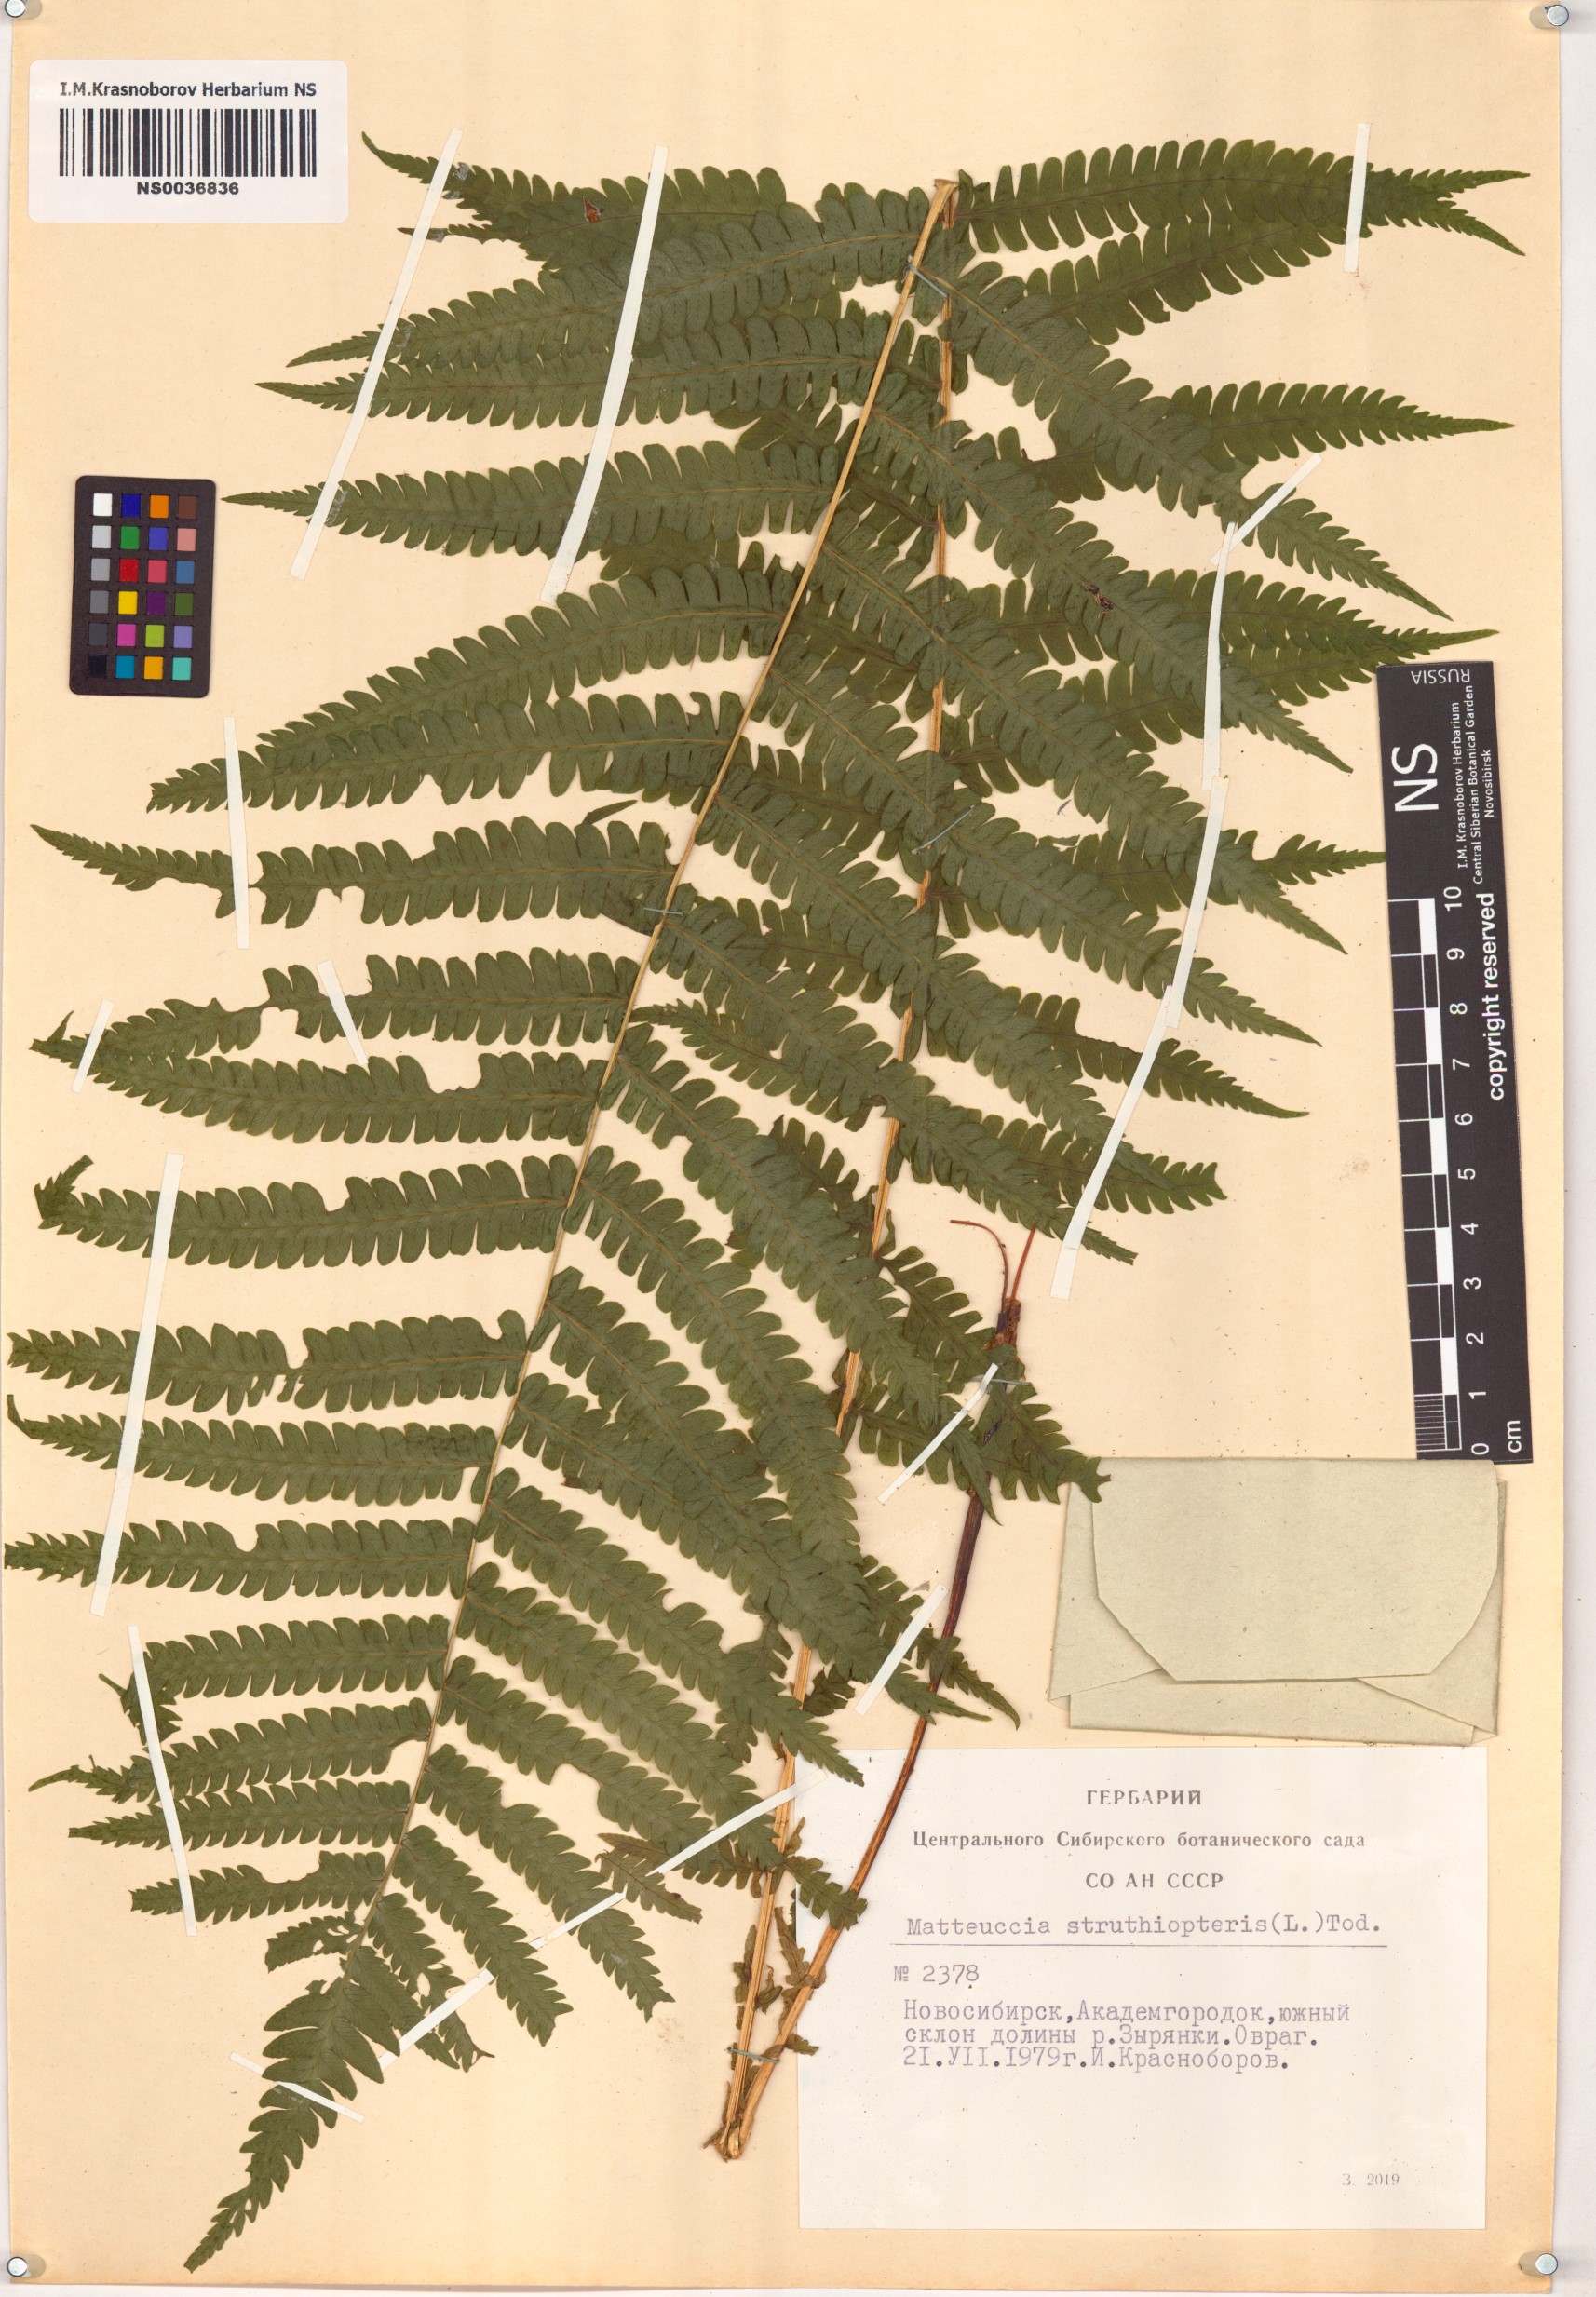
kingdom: Plantae
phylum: Tracheophyta
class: Polypodiopsida
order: Polypodiales
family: Onocleaceae
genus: Matteuccia
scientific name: Matteuccia struthiopteris
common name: Ostrich fern
